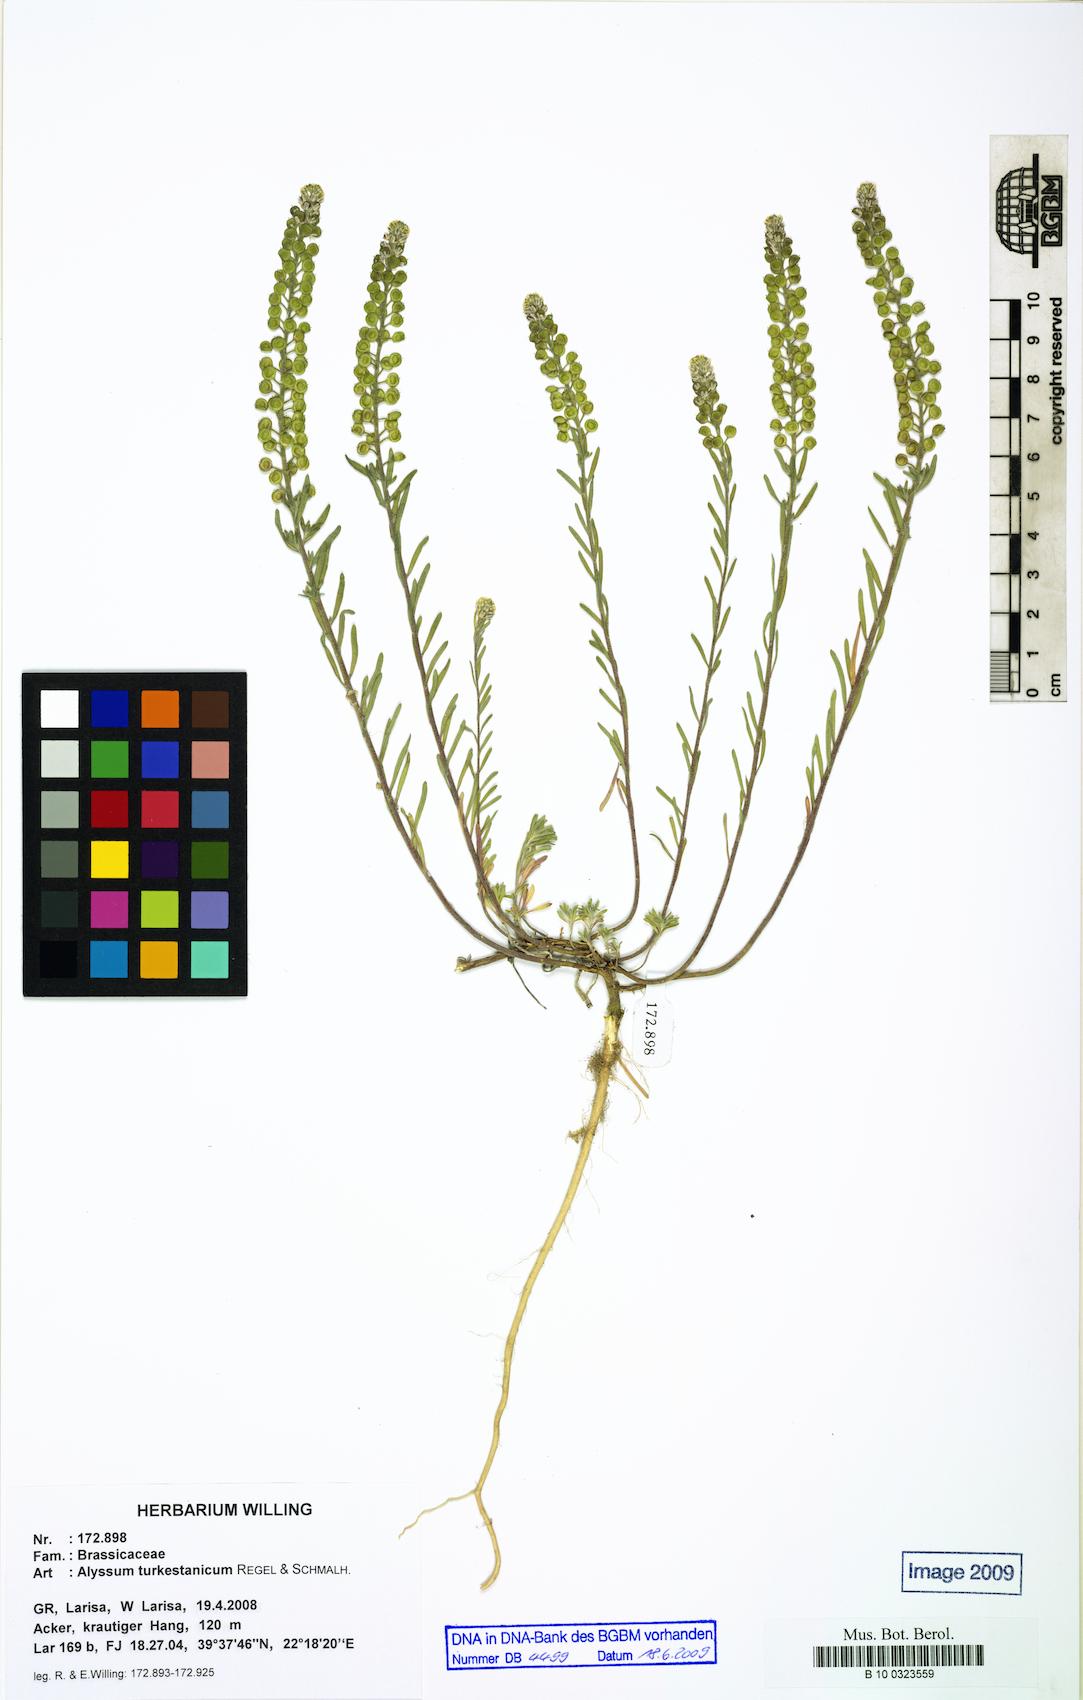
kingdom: Plantae
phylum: Tracheophyta
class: Magnoliopsida
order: Brassicales
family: Brassicaceae
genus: Alyssum
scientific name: Alyssum turkestanicum
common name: Desert alyssum
